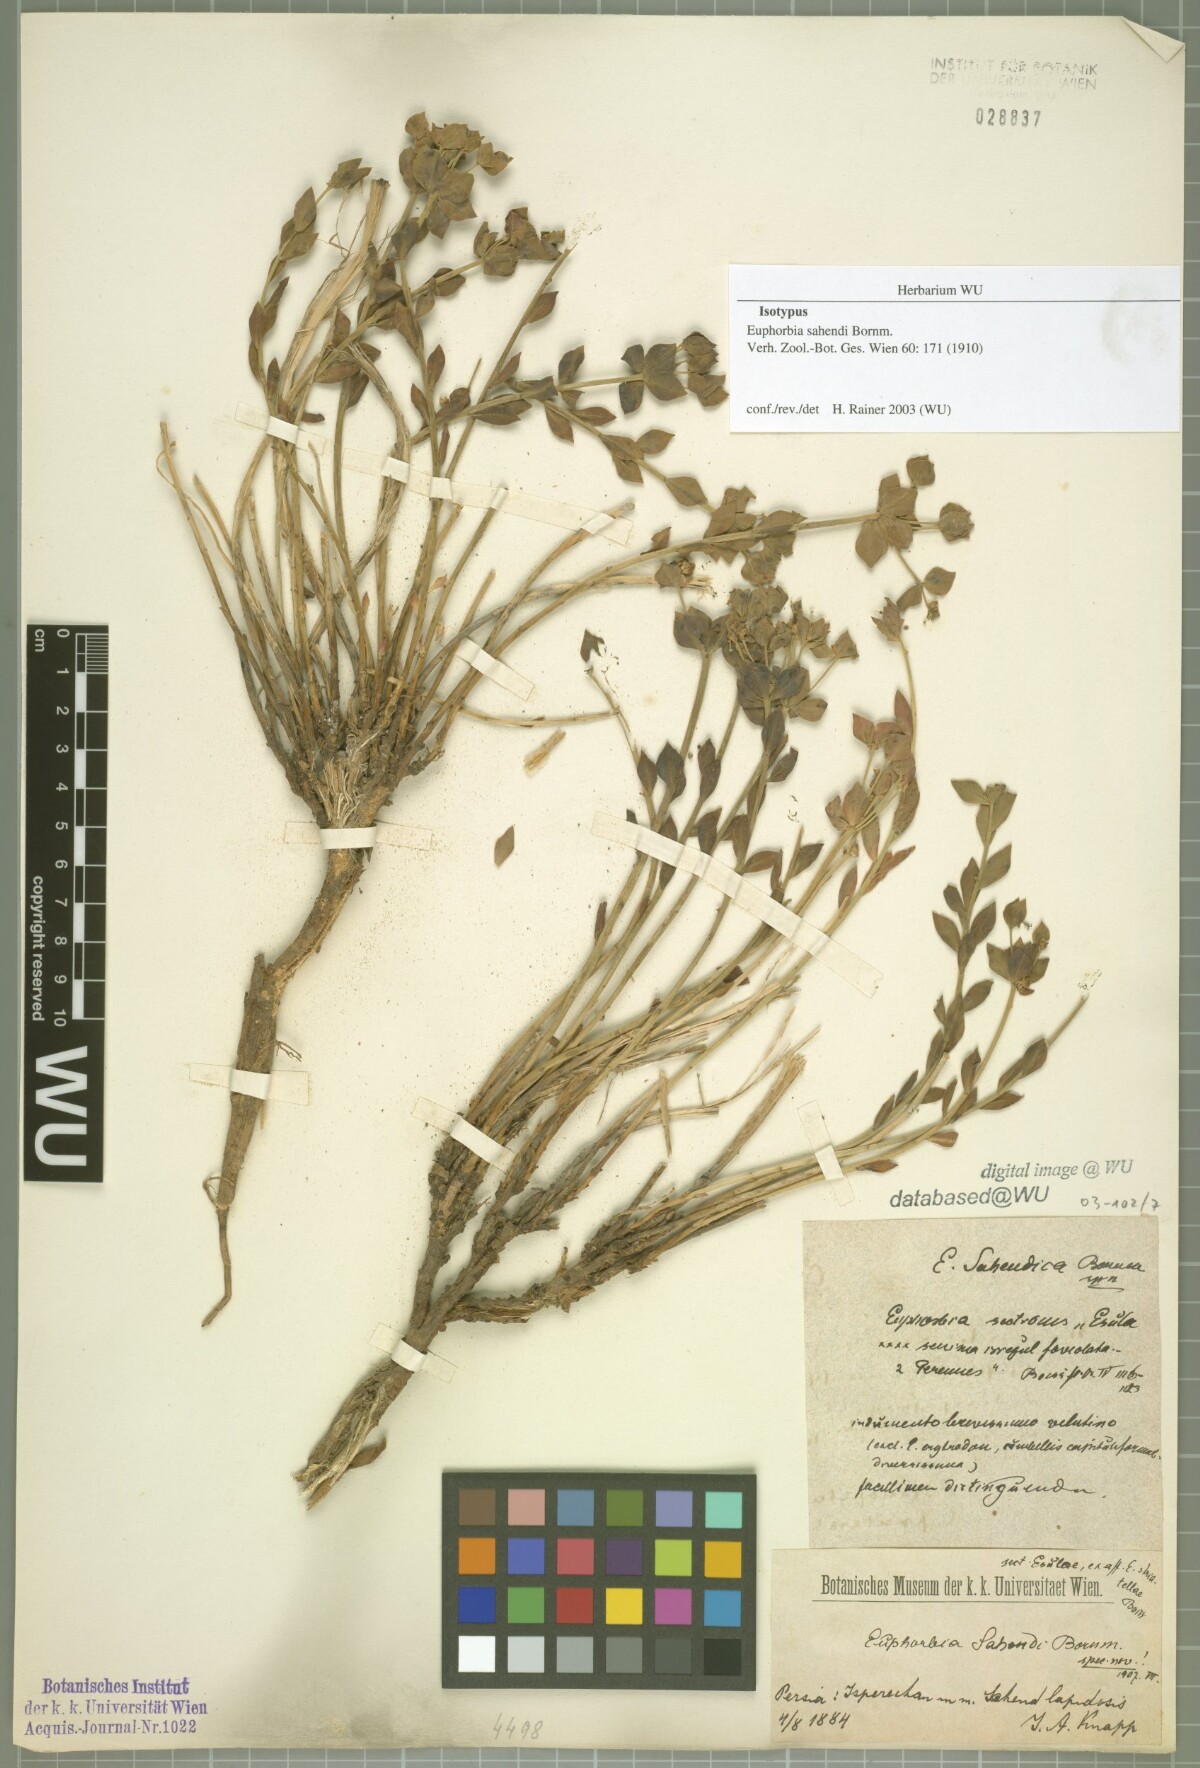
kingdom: Plantae
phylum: Tracheophyta
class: Magnoliopsida
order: Malpighiales
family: Euphorbiaceae
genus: Euphorbia
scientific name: Euphorbia sahendi
